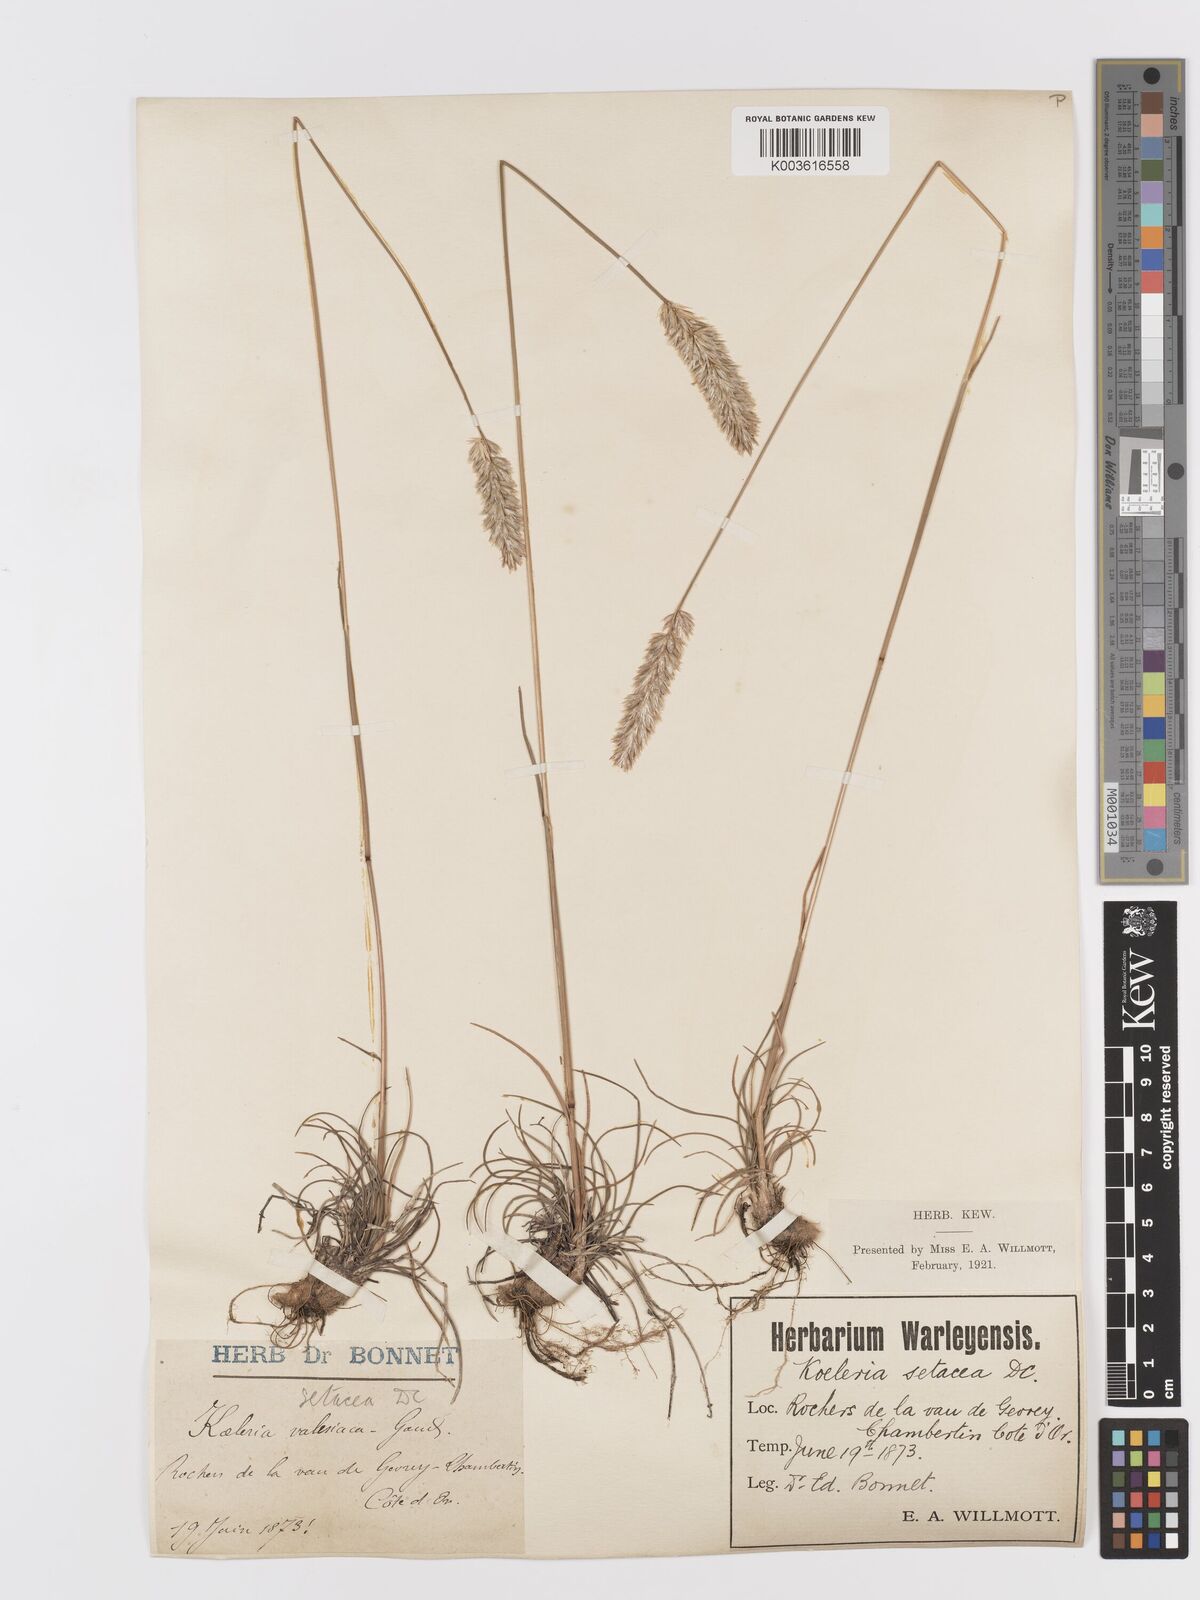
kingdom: Plantae
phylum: Tracheophyta
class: Liliopsida
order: Poales
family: Poaceae
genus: Koeleria
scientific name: Koeleria vallesiana
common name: Somerset hair-grass
